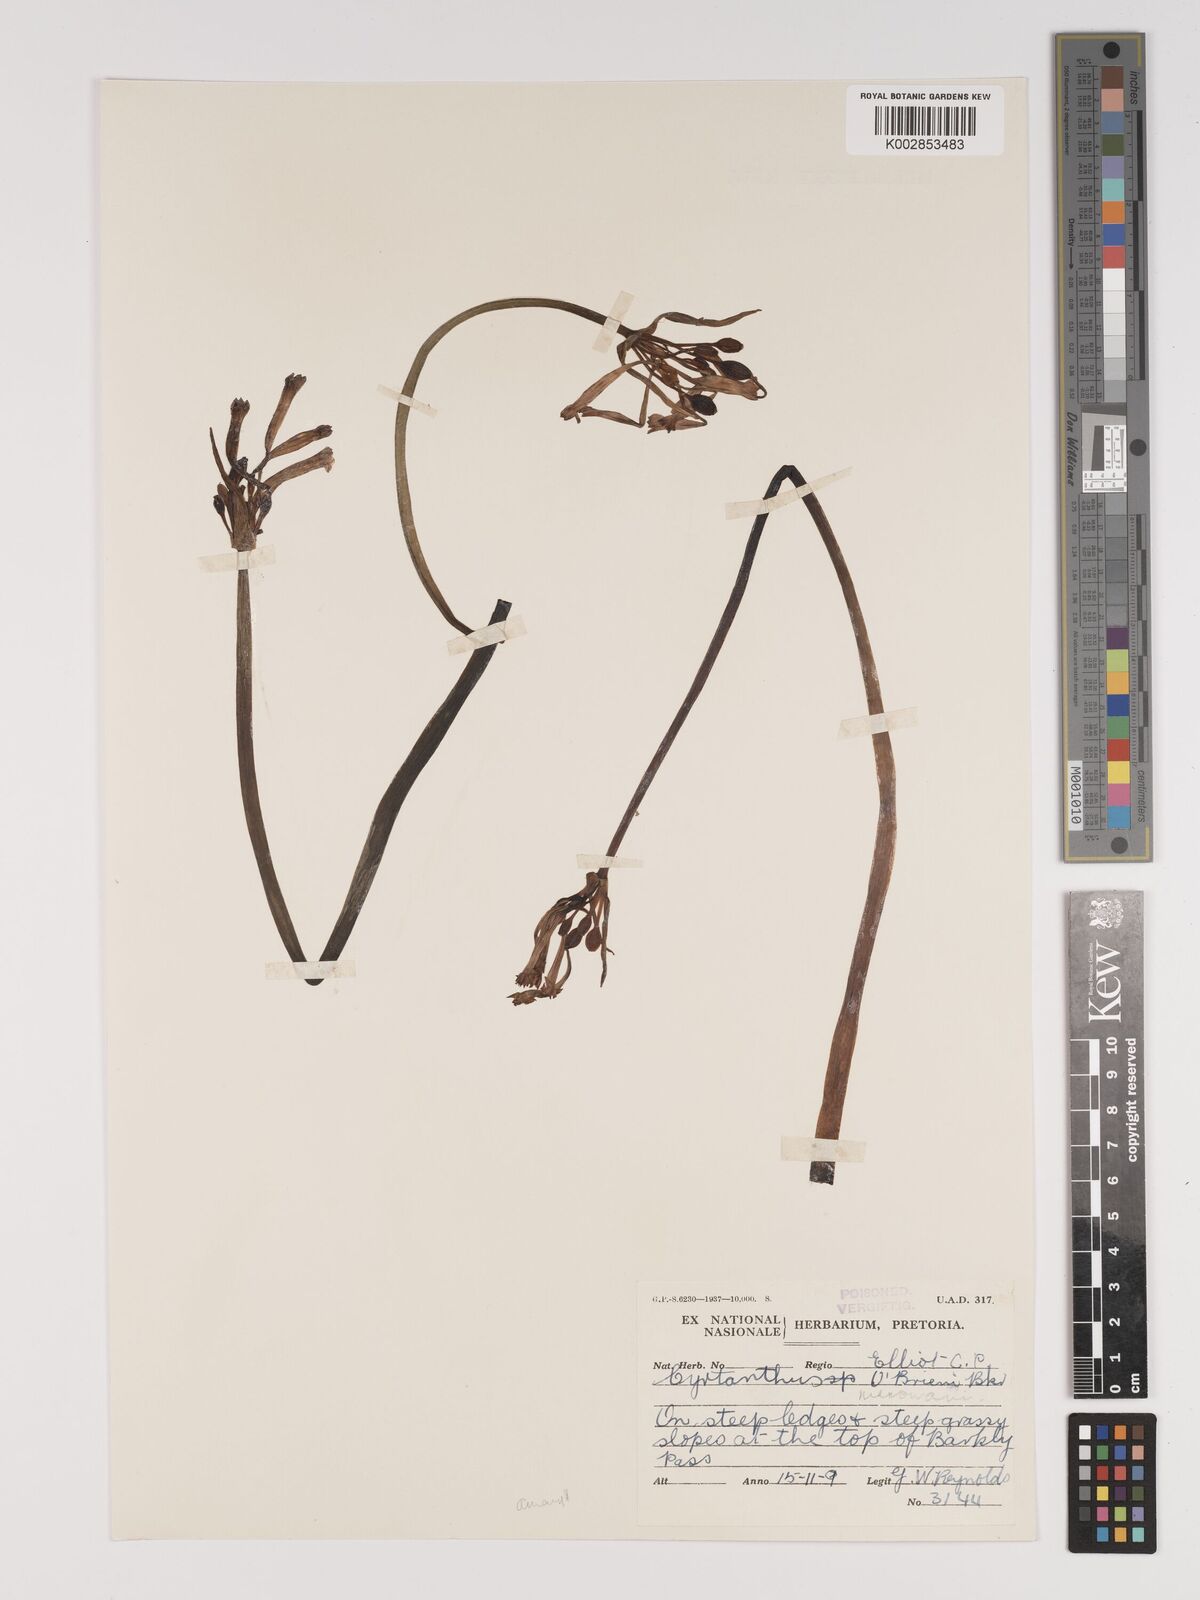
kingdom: Plantae
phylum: Tracheophyta
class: Liliopsida
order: Asparagales
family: Amaryllidaceae
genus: Cyrtanthus
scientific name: Cyrtanthus obrienii
